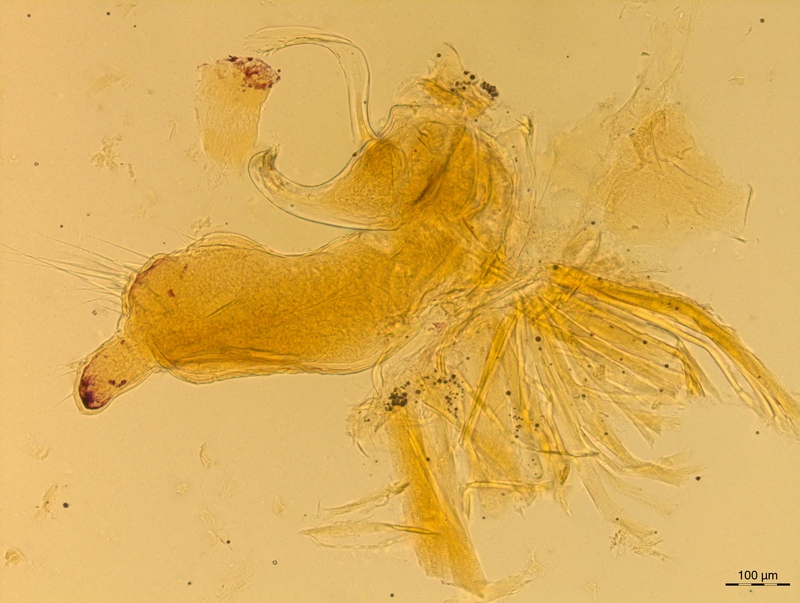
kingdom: Animalia
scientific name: Animalia
